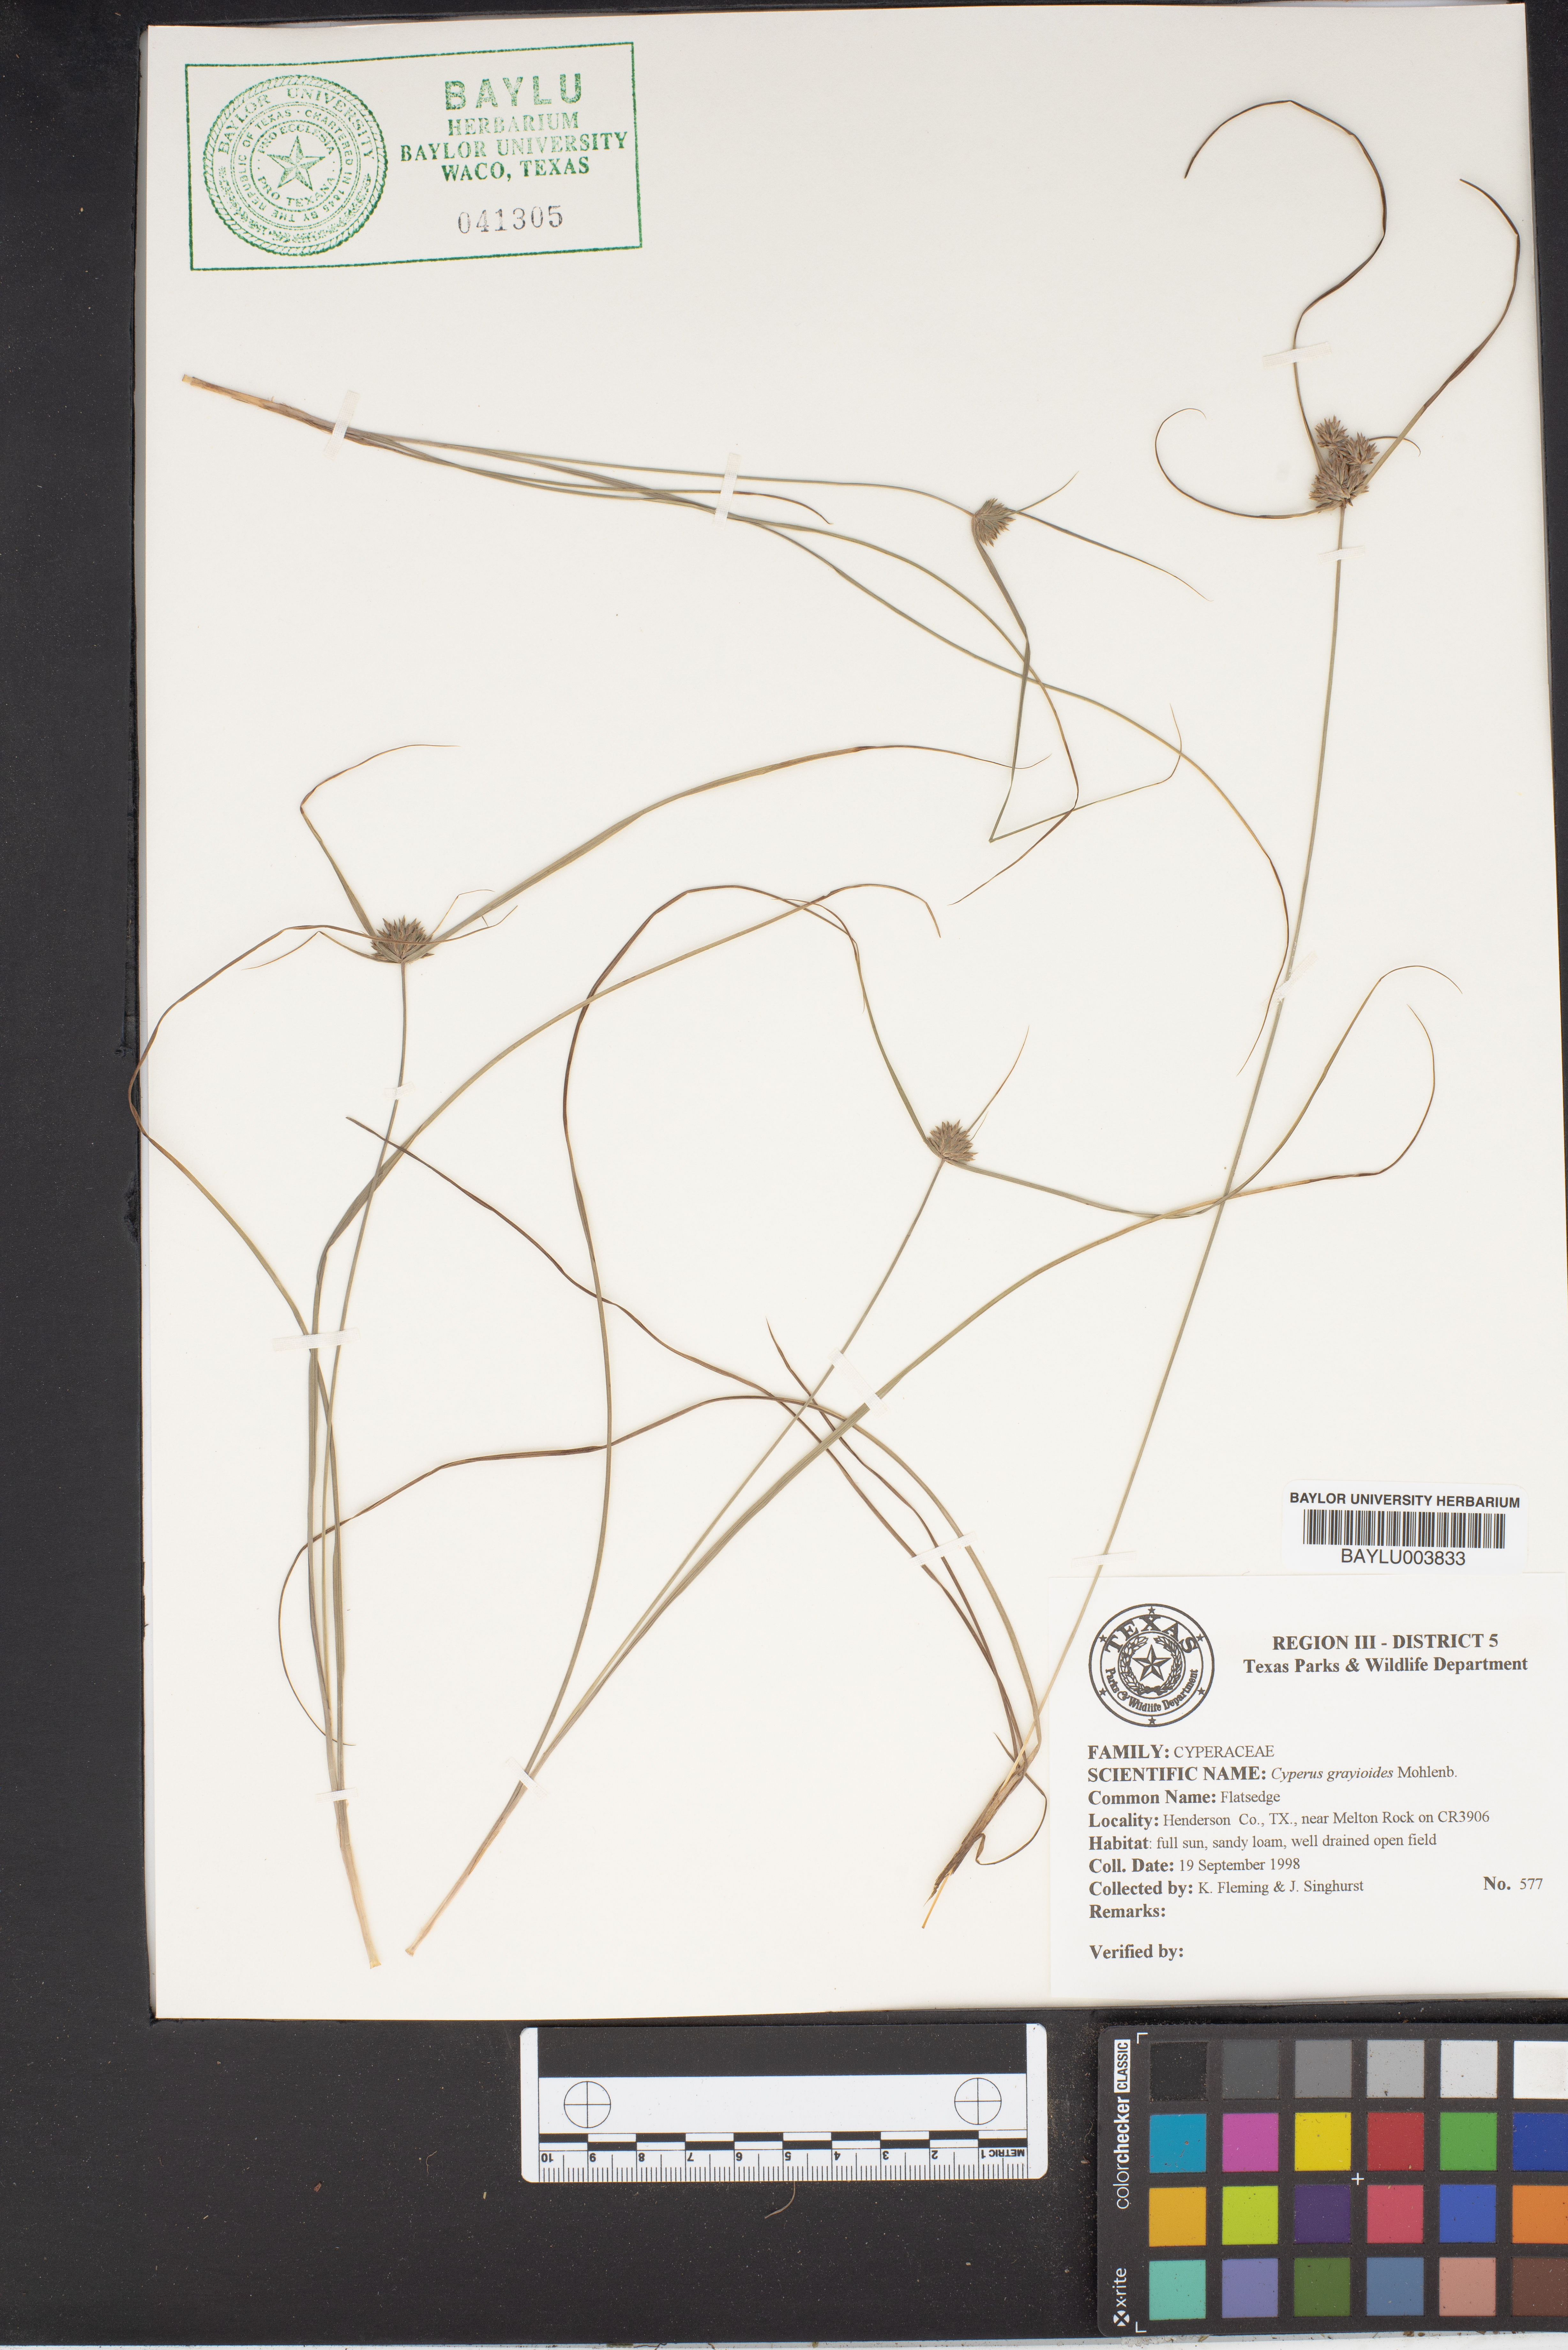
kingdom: Plantae
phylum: Tracheophyta
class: Liliopsida
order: Poales
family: Cyperaceae
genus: Cyperus
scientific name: Cyperus grayioides
